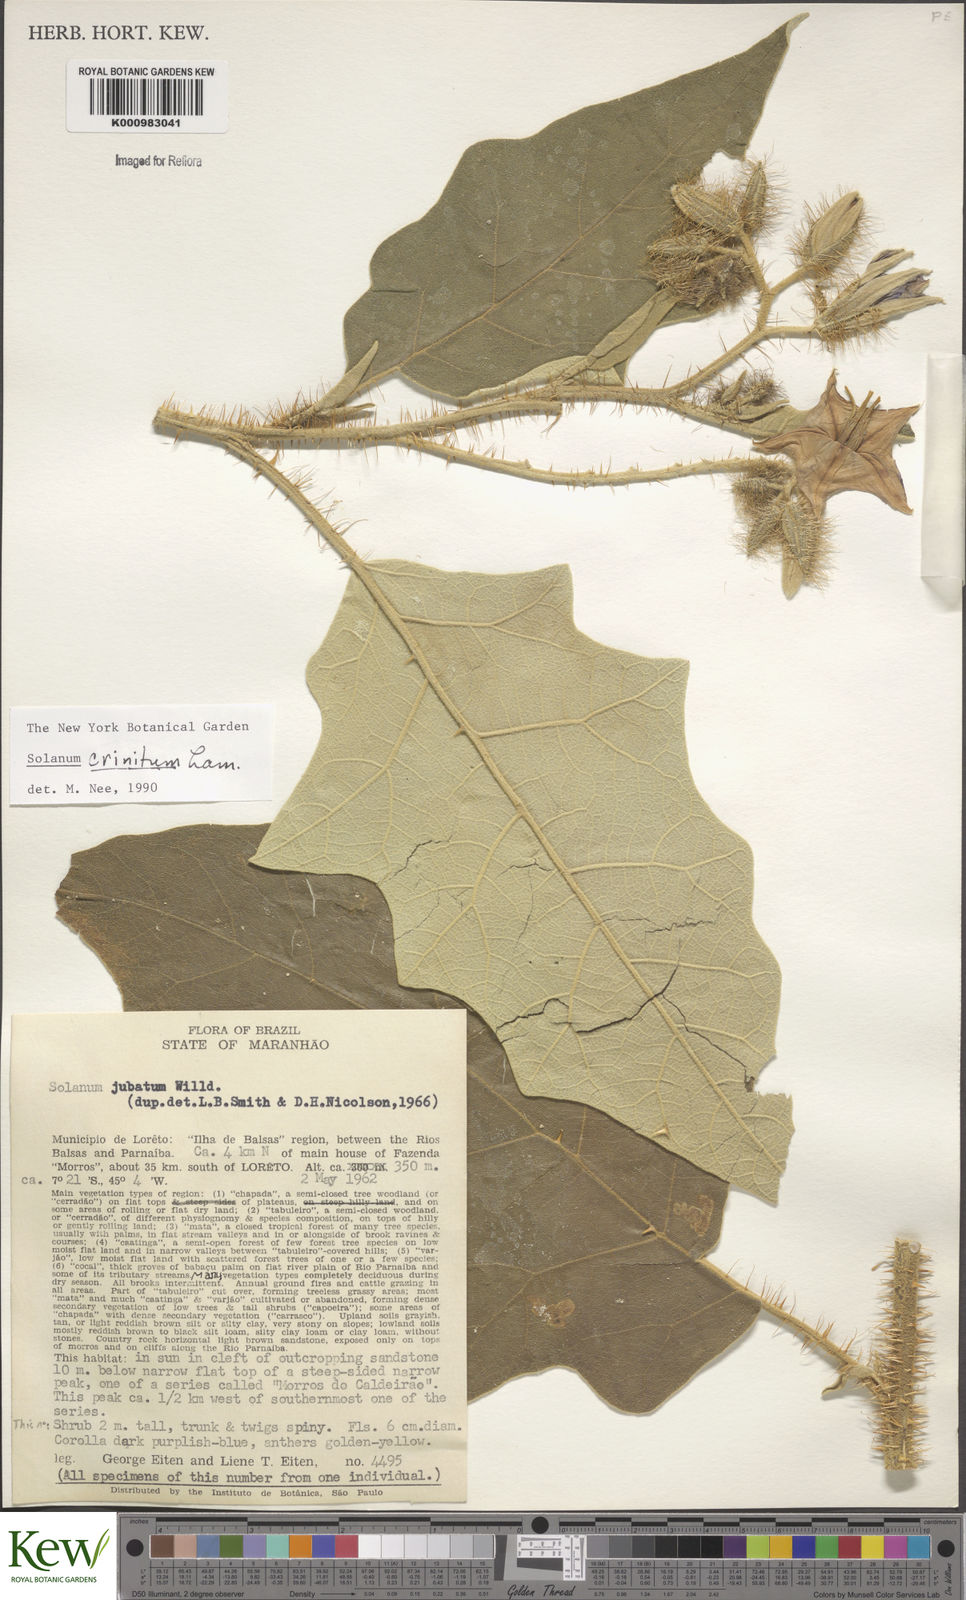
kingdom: Plantae
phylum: Tracheophyta
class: Magnoliopsida
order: Solanales
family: Solanaceae
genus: Solanum
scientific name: Solanum crinitum
